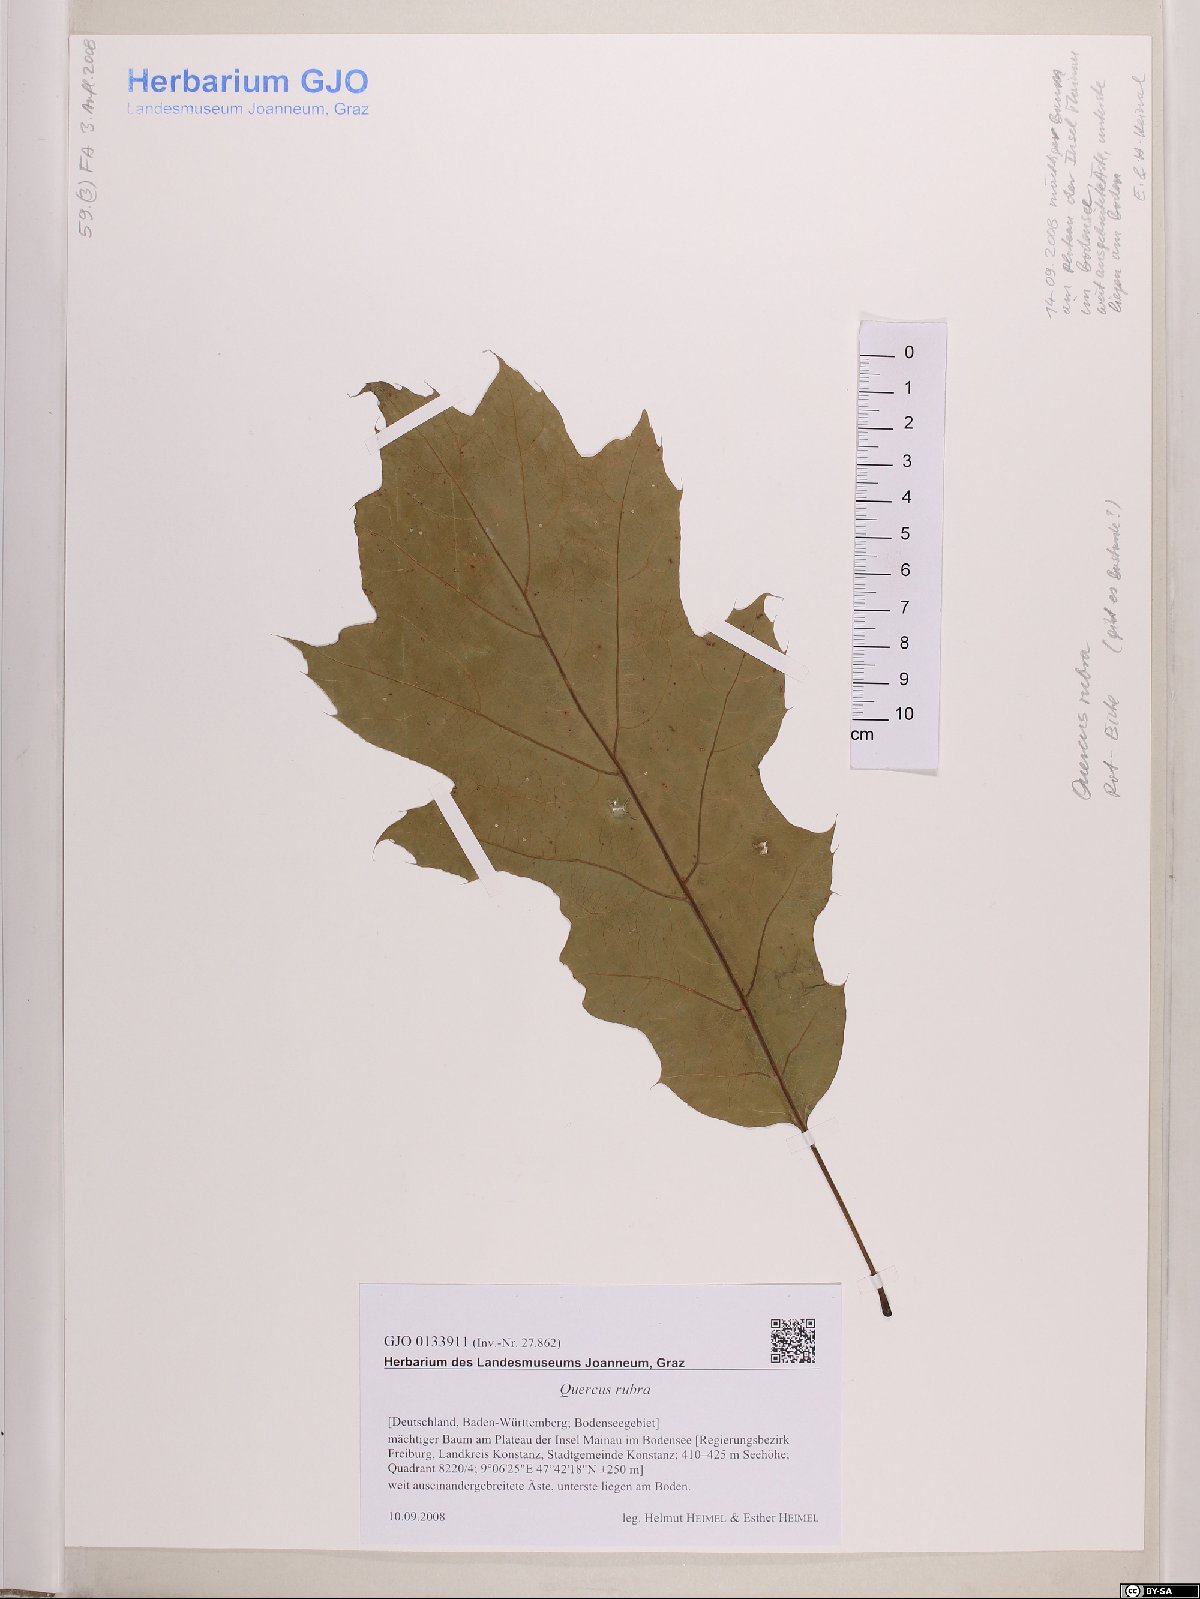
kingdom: Plantae
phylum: Tracheophyta
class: Magnoliopsida
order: Fagales
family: Fagaceae
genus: Quercus
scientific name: Quercus rubra
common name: Red oak
